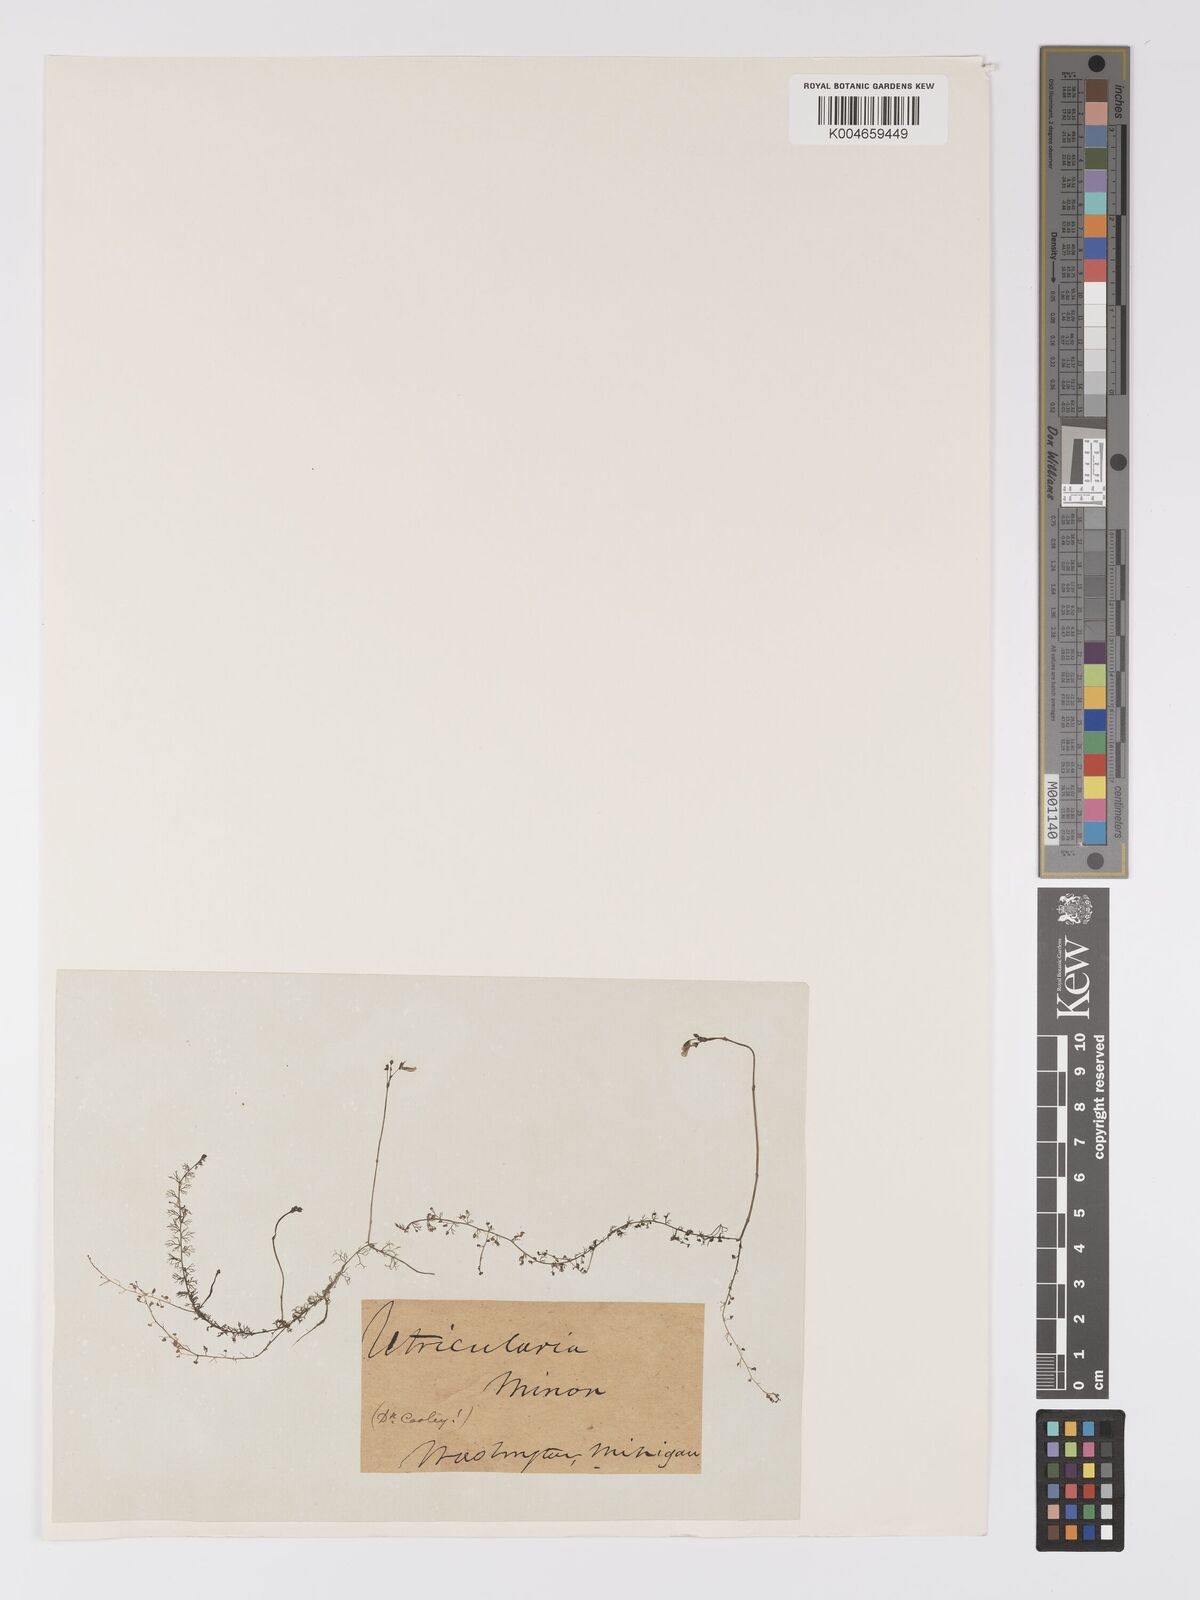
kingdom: Plantae
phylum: Tracheophyta
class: Magnoliopsida
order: Lamiales
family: Lentibulariaceae
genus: Utricularia
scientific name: Utricularia minor
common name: Lesser bladderwort
